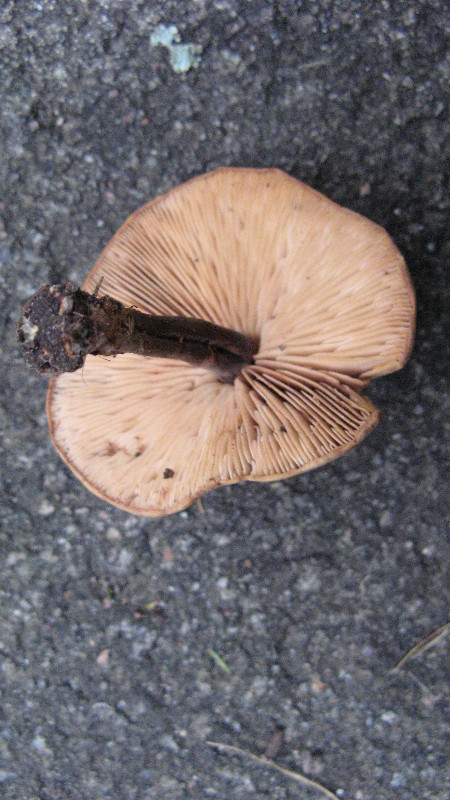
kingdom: Fungi
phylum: Basidiomycota
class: Agaricomycetes
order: Agaricales
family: Macrocystidiaceae
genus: Macrocystidia
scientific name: Macrocystidia cucumis
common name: agurkehat
